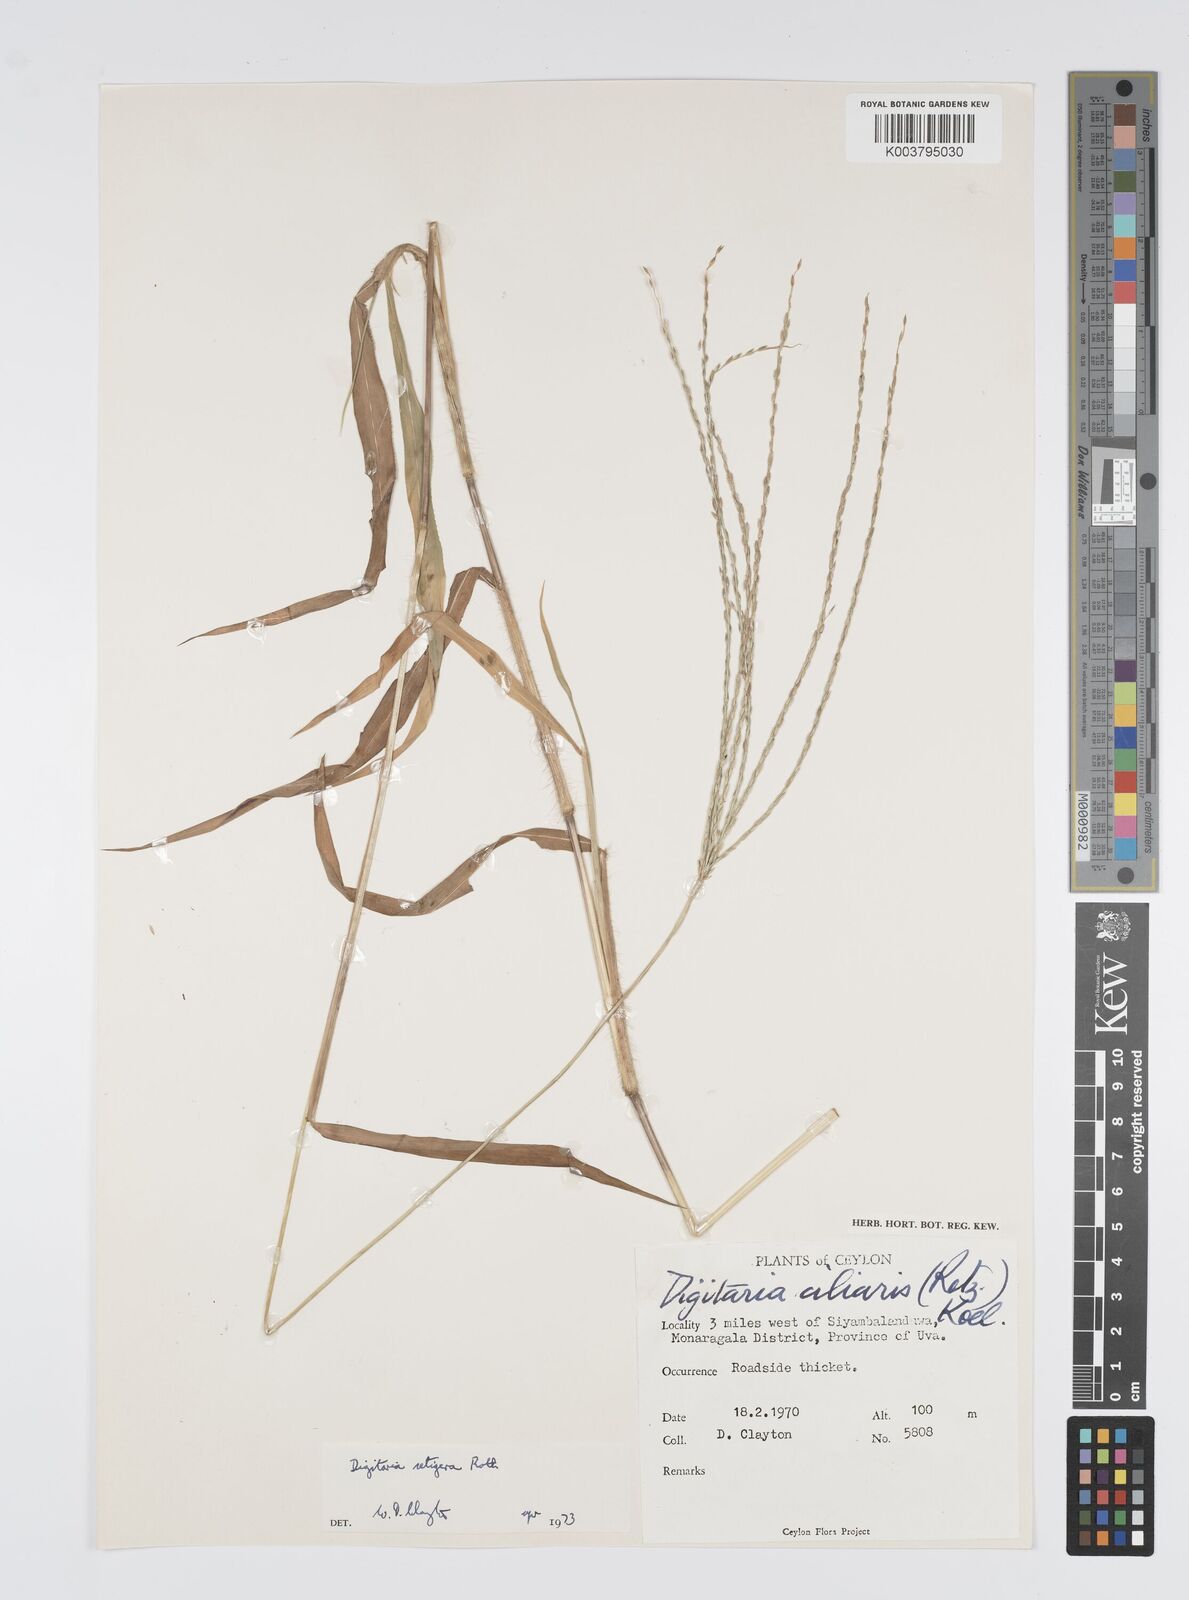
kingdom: Plantae
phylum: Tracheophyta
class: Liliopsida
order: Poales
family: Poaceae
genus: Digitaria
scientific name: Digitaria setigera
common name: East indian crabgrass
